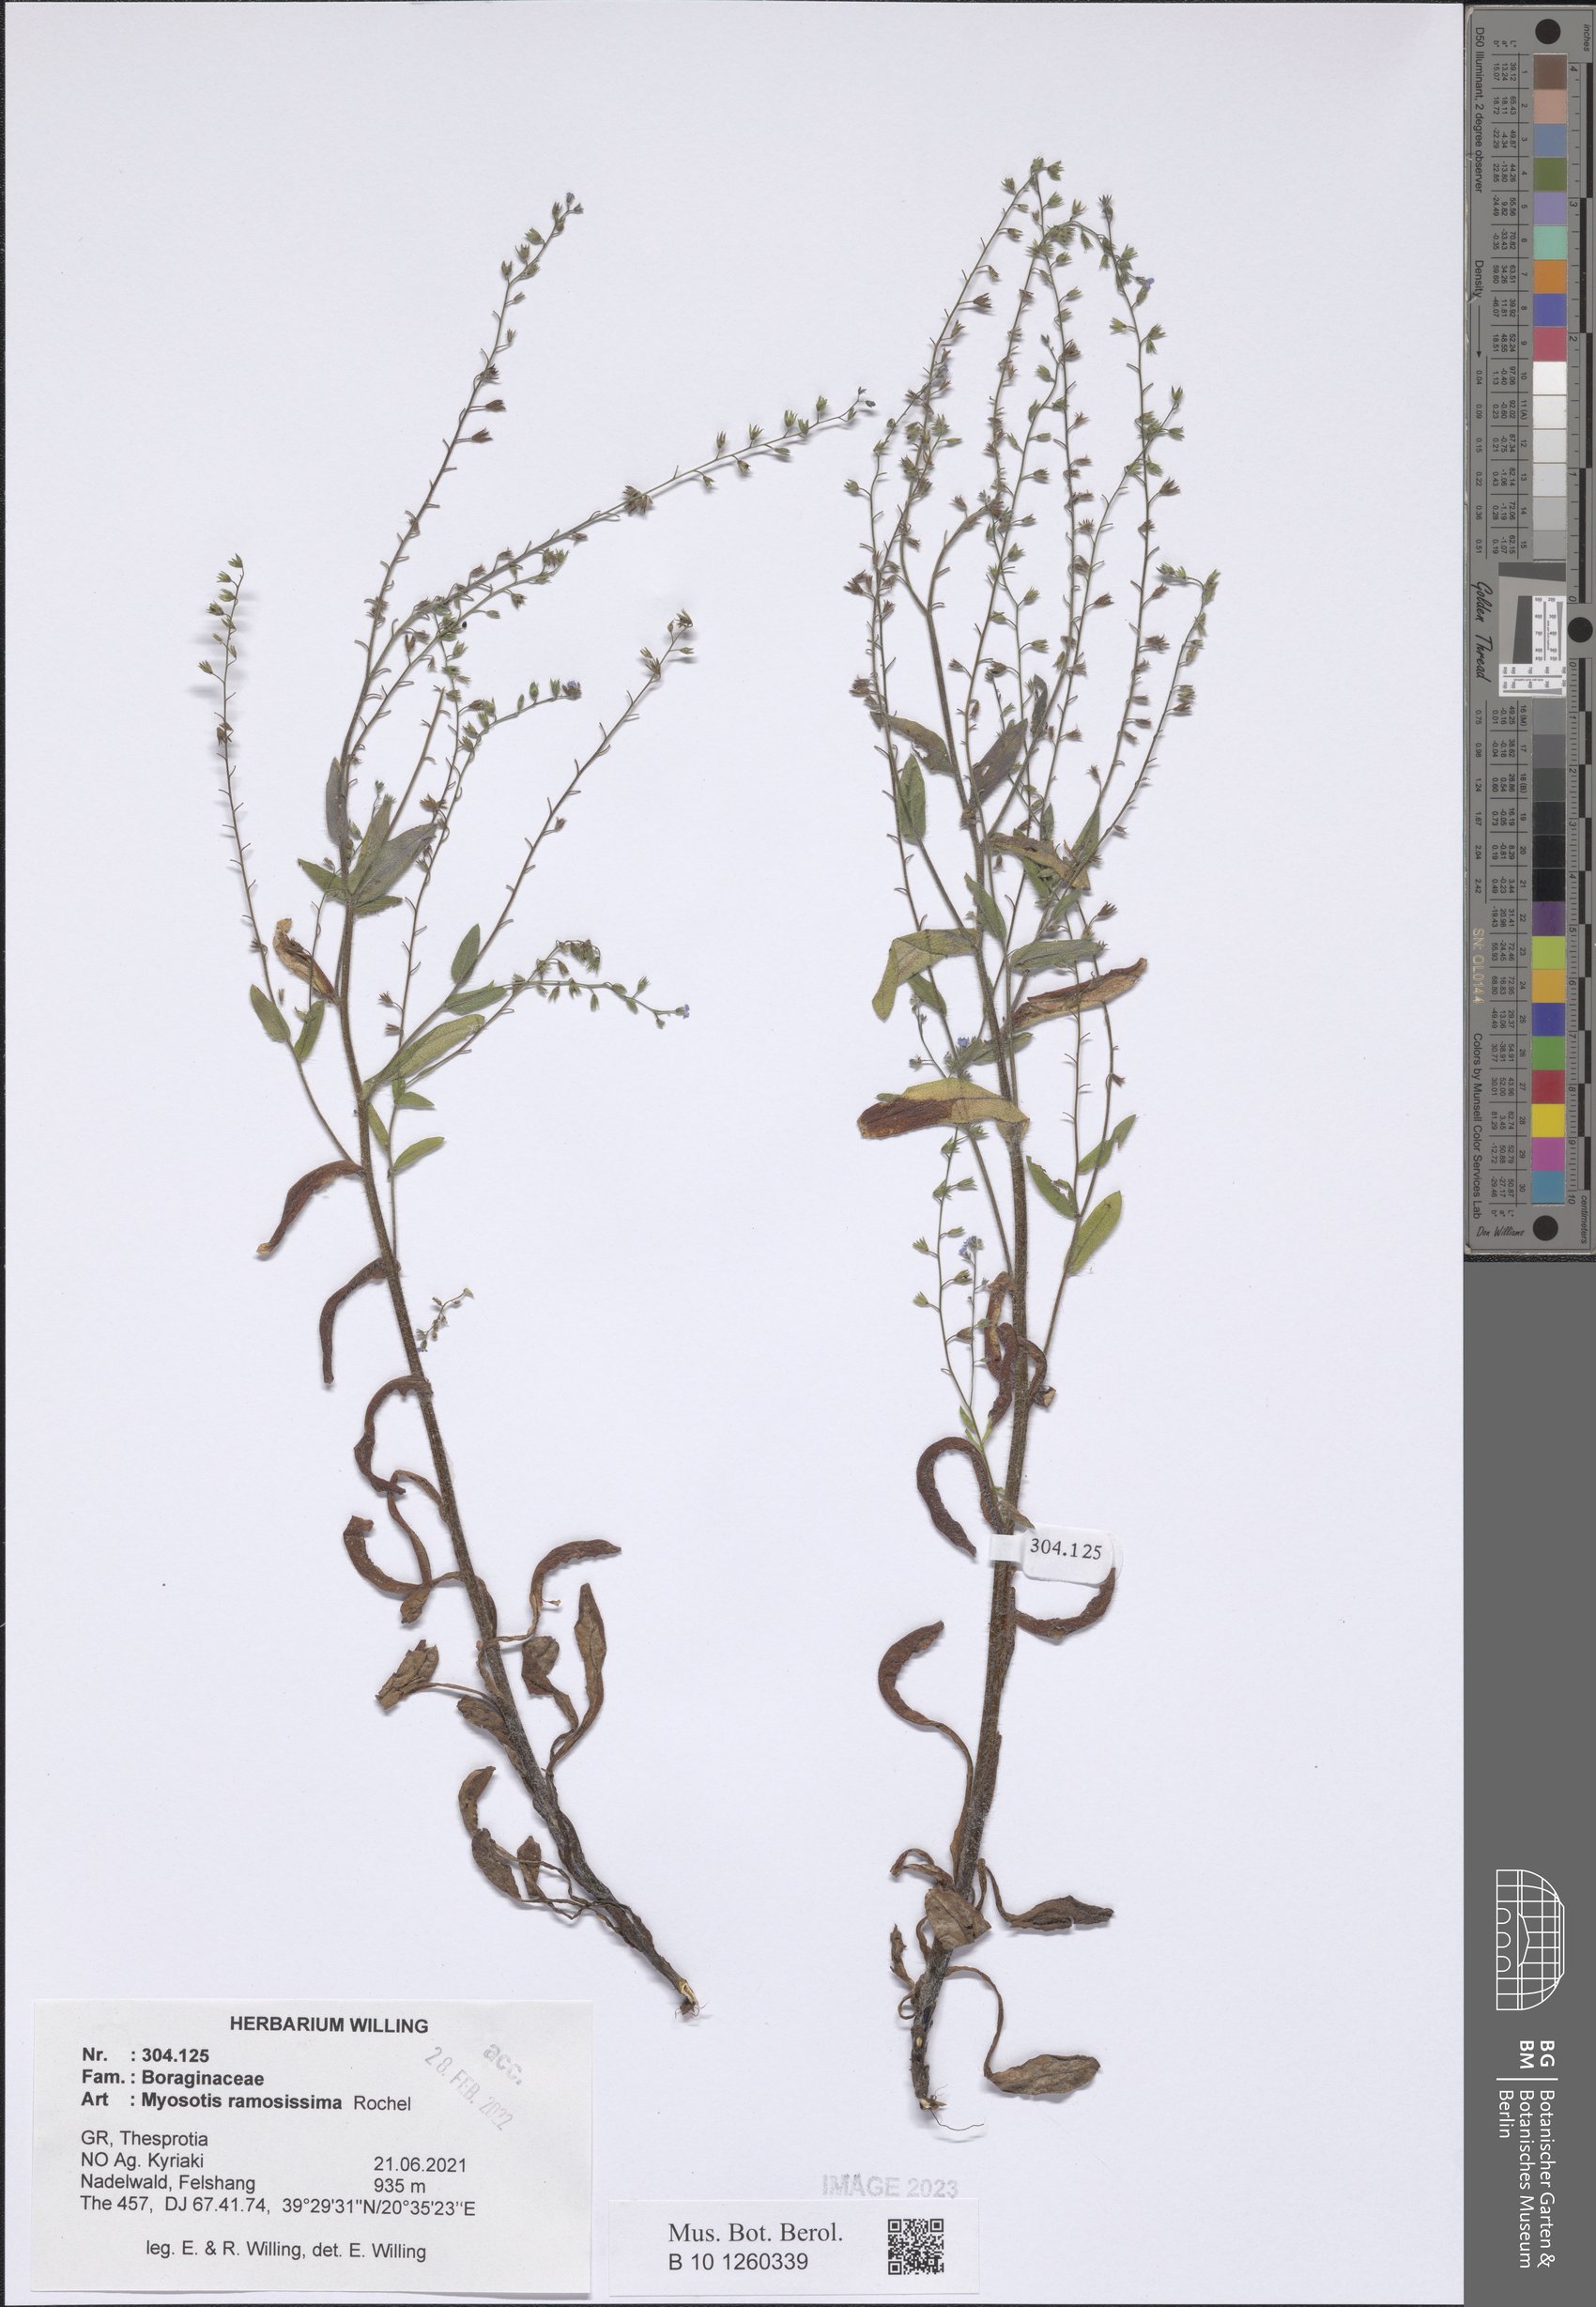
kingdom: Plantae
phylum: Tracheophyta
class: Magnoliopsida
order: Boraginales
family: Boraginaceae
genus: Myosotis
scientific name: Myosotis ramosissima
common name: Early forget-me-not
